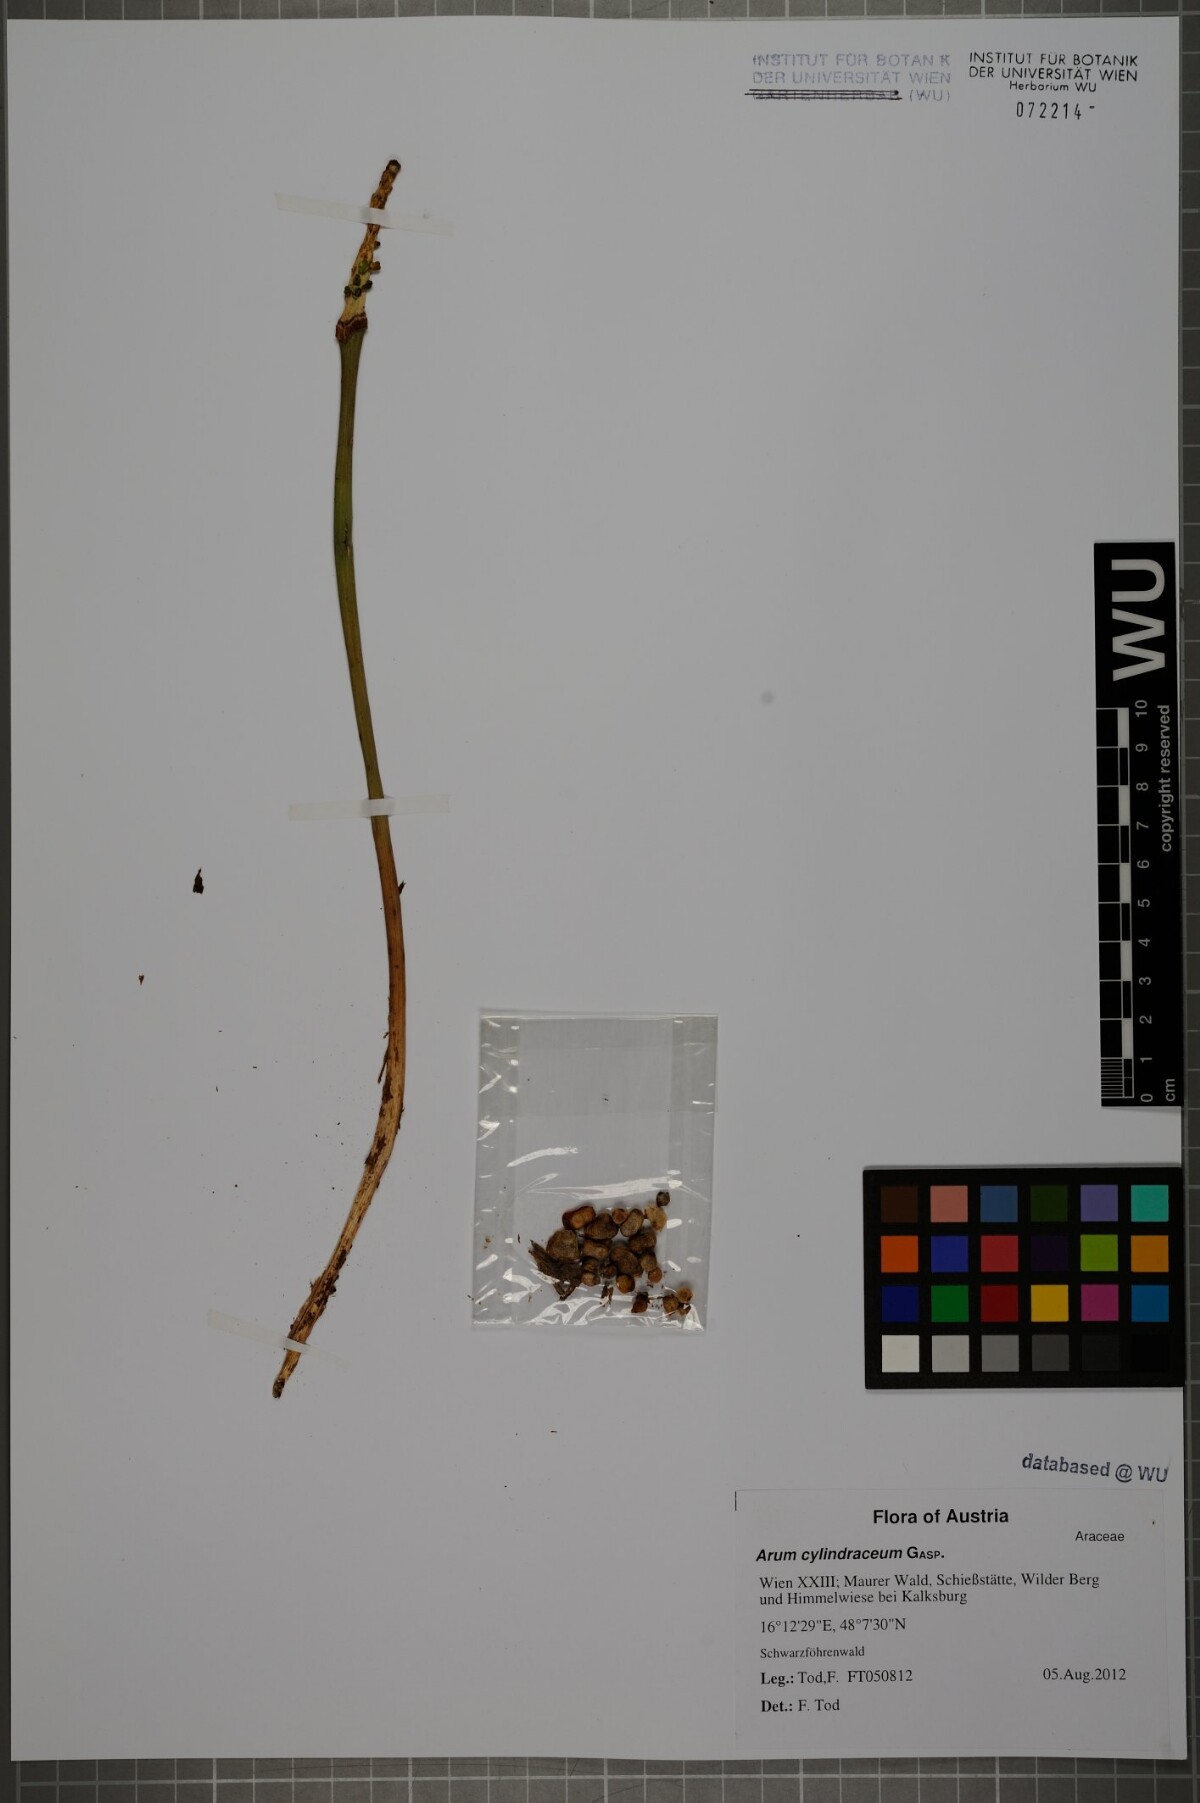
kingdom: Plantae
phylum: Tracheophyta
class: Liliopsida
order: Alismatales
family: Araceae
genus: Arum
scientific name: Arum cylindraceum
